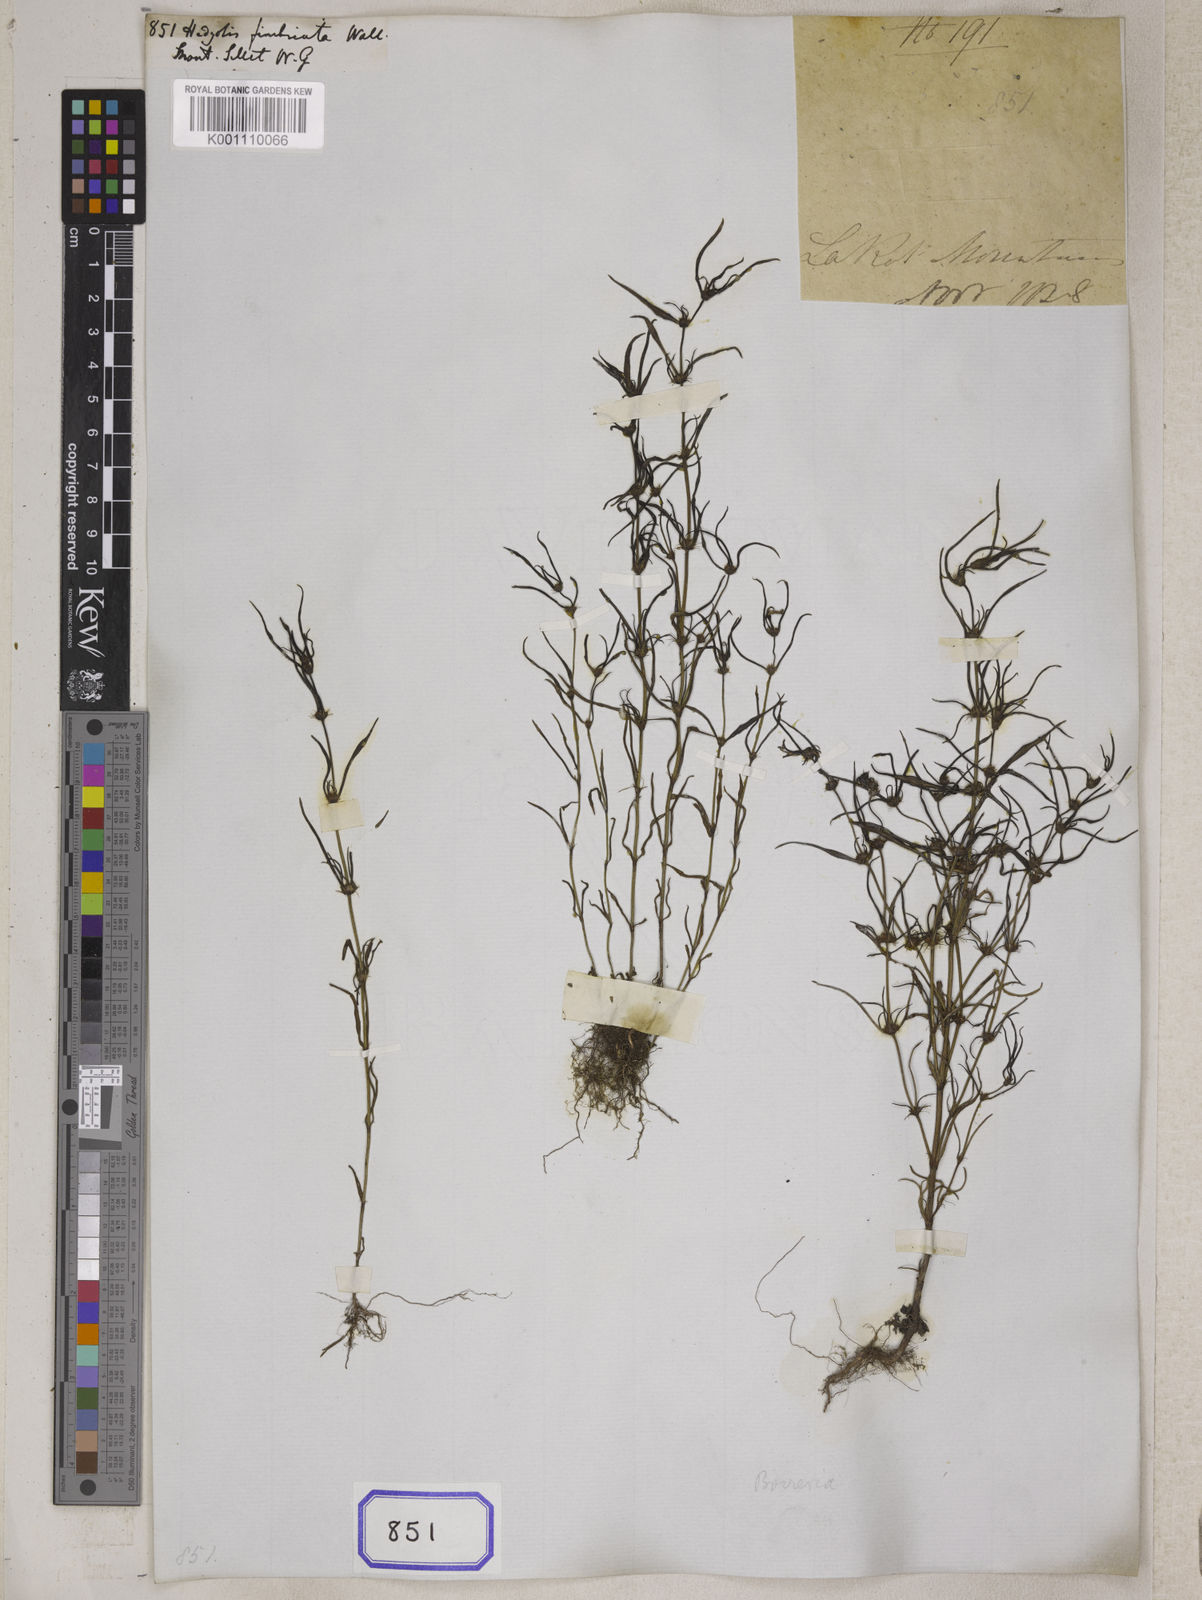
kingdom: Plantae
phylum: Tracheophyta
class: Magnoliopsida
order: Gentianales
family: Rubiaceae
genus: Hedyotis
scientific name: Hedyotis
